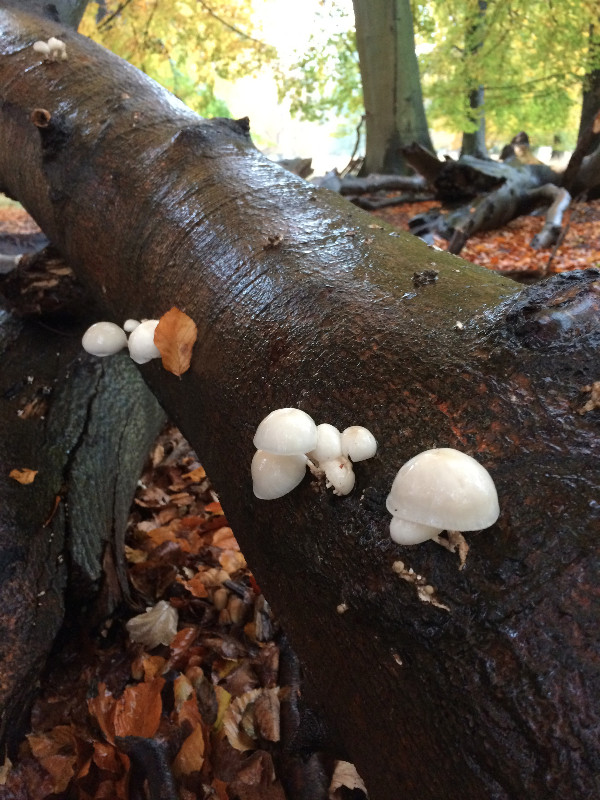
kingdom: Fungi
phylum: Basidiomycota
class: Agaricomycetes
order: Agaricales
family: Physalacriaceae
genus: Mucidula
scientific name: Mucidula mucida
